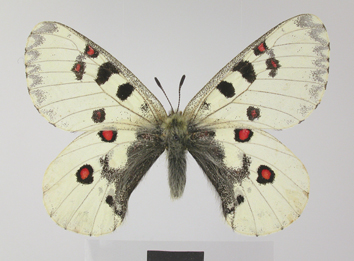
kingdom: Animalia
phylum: Arthropoda
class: Insecta
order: Lepidoptera
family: Papilionidae
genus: Parnassius
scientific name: Parnassius actius
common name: Scarce red apollo
